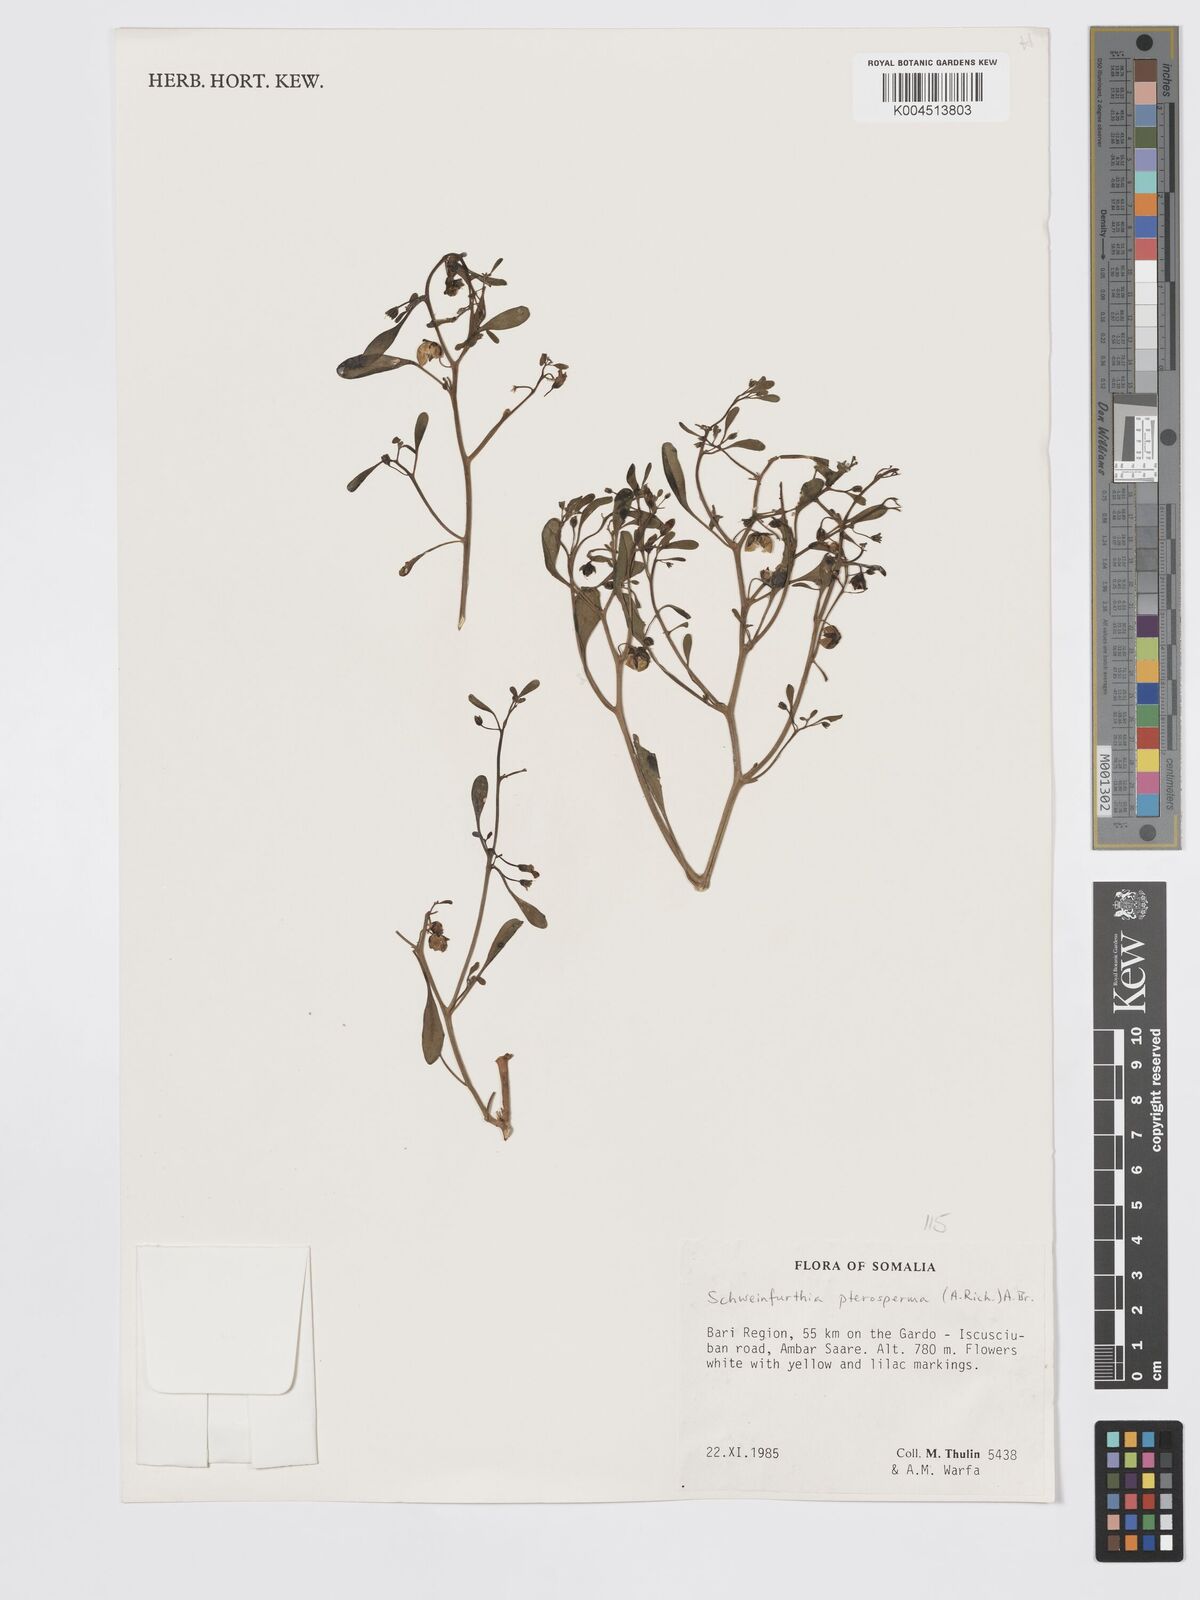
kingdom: Plantae
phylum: Tracheophyta
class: Magnoliopsida
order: Lamiales
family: Plantaginaceae
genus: Schweinfurthia
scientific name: Schweinfurthia pterosperma
